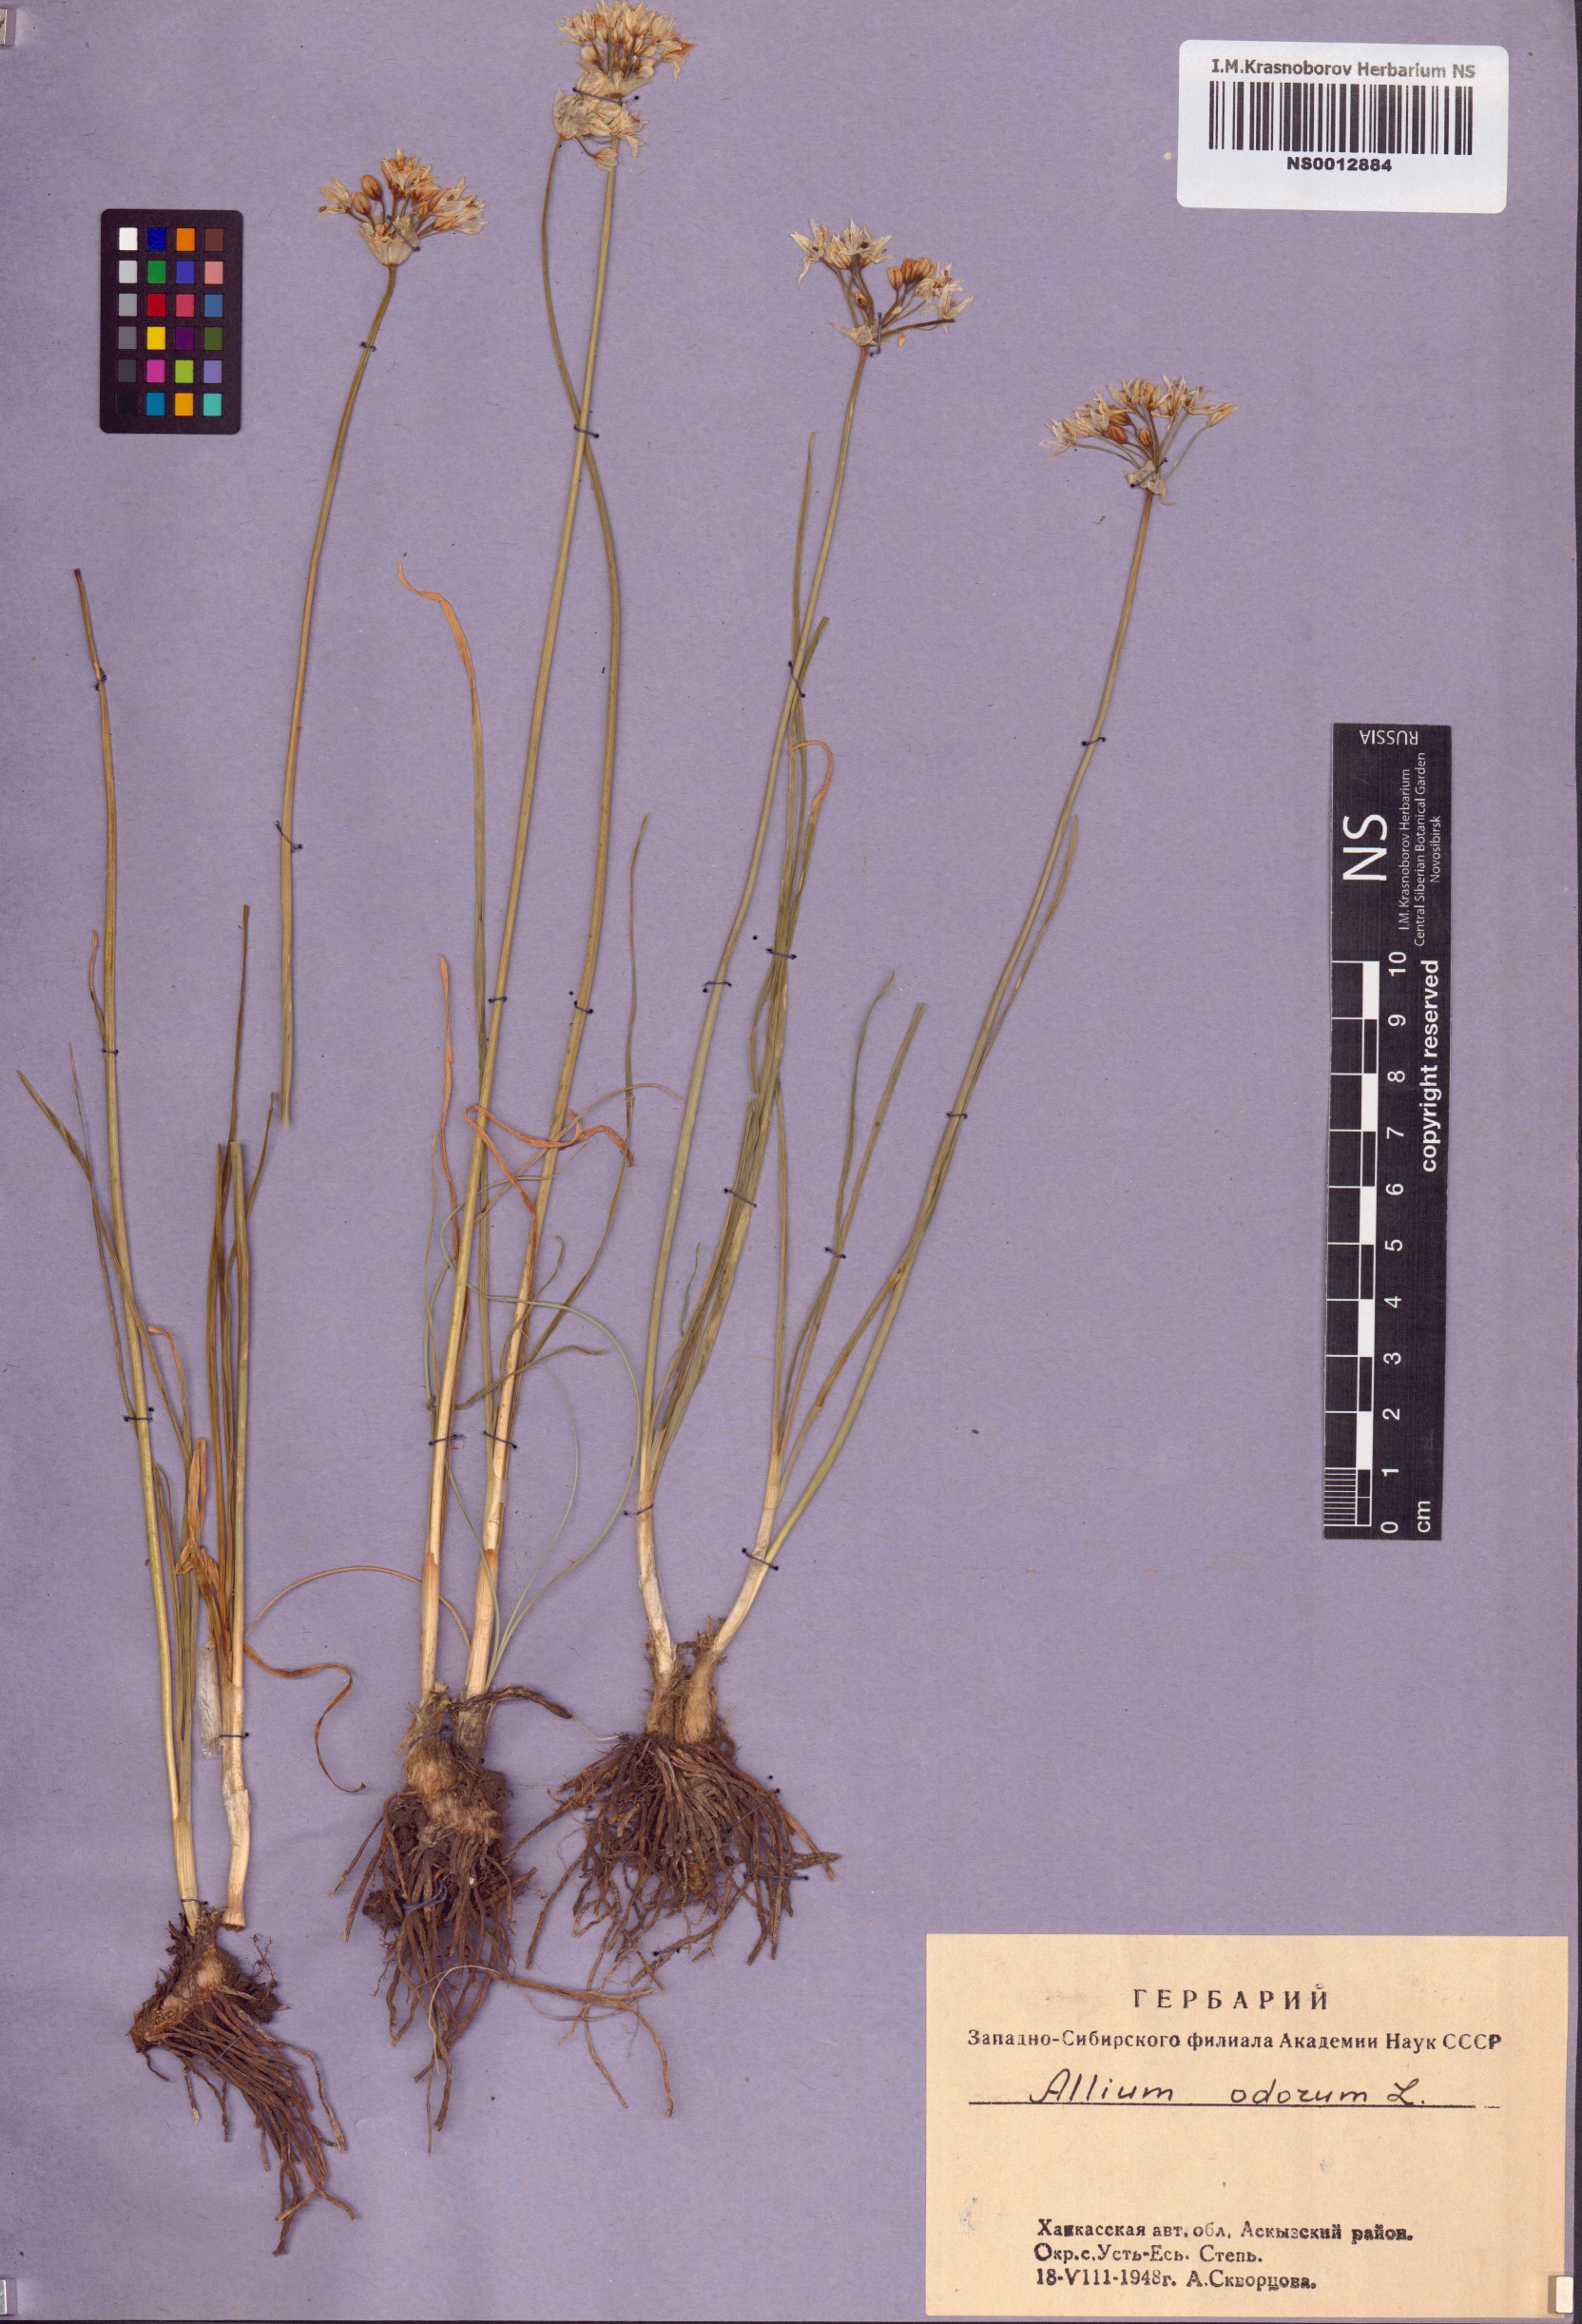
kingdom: Plantae
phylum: Tracheophyta
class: Liliopsida
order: Asparagales
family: Amaryllidaceae
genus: Allium
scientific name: Allium ramosum
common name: Fragrant garlic
